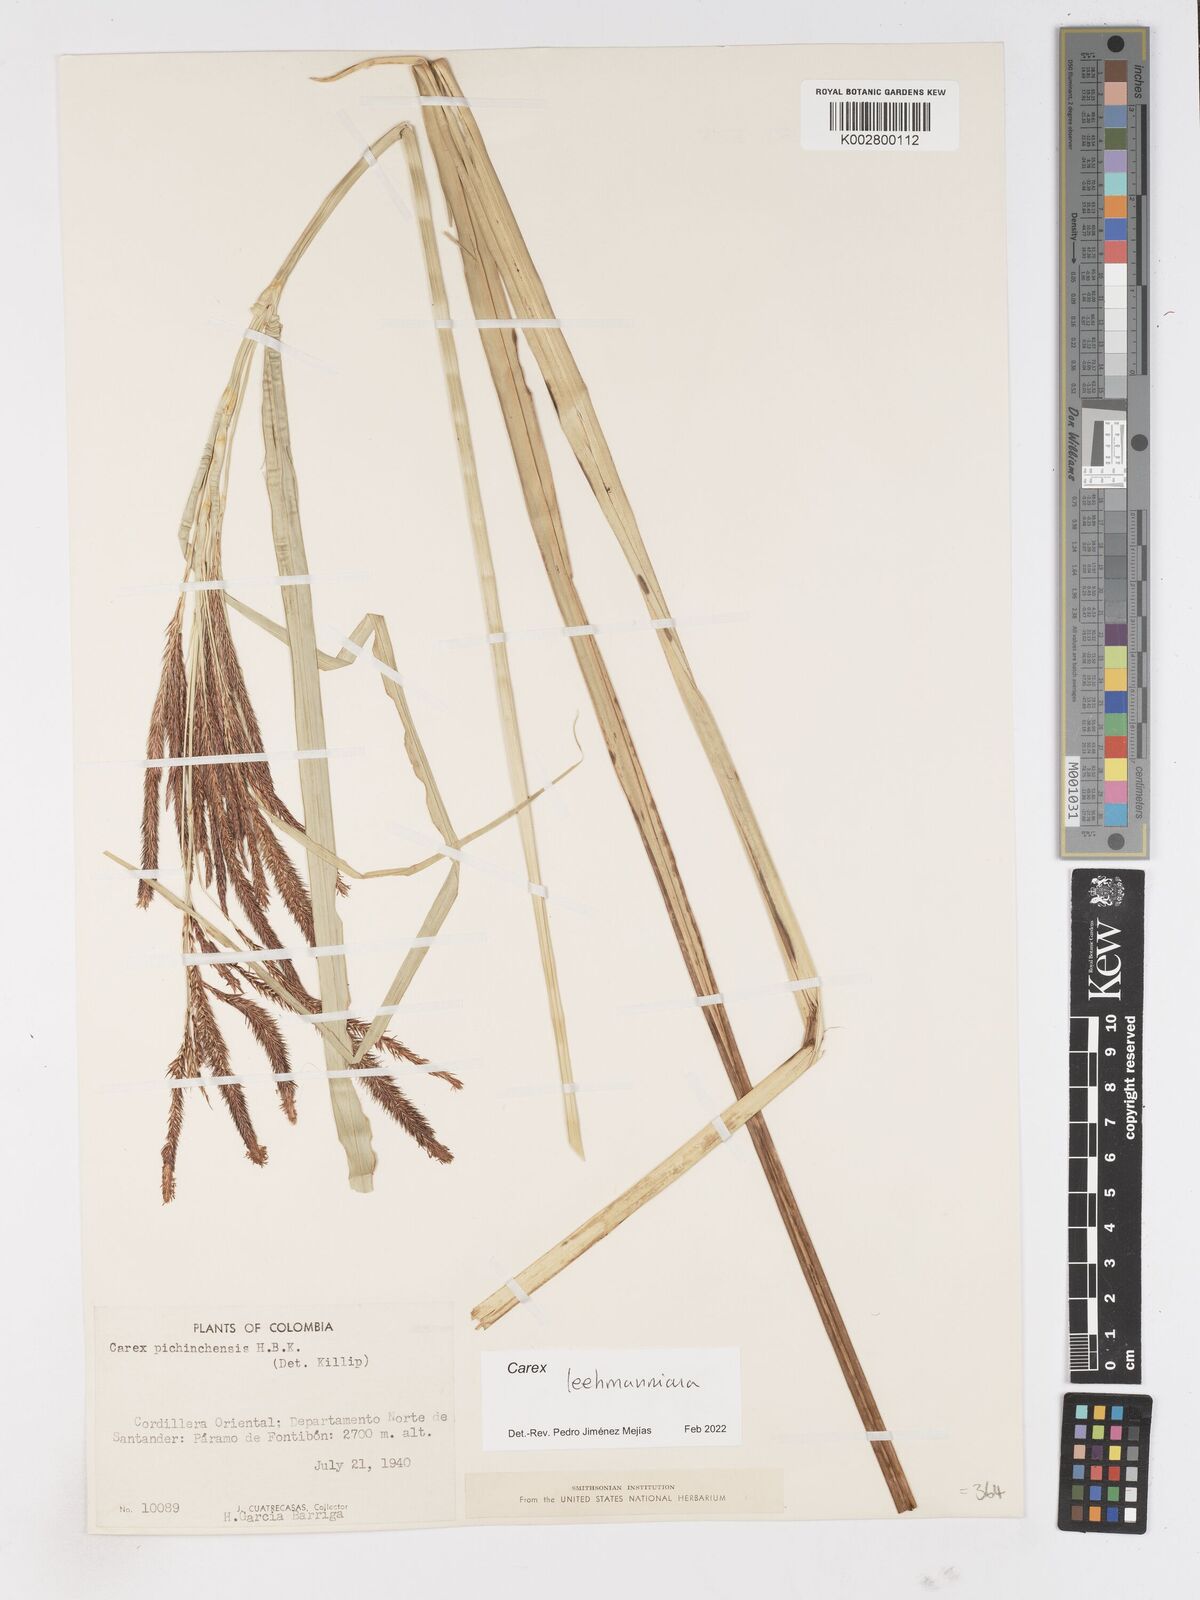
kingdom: Plantae
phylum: Tracheophyta
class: Liliopsida
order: Poales
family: Cyperaceae
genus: Carex
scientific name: Carex lemanniana
